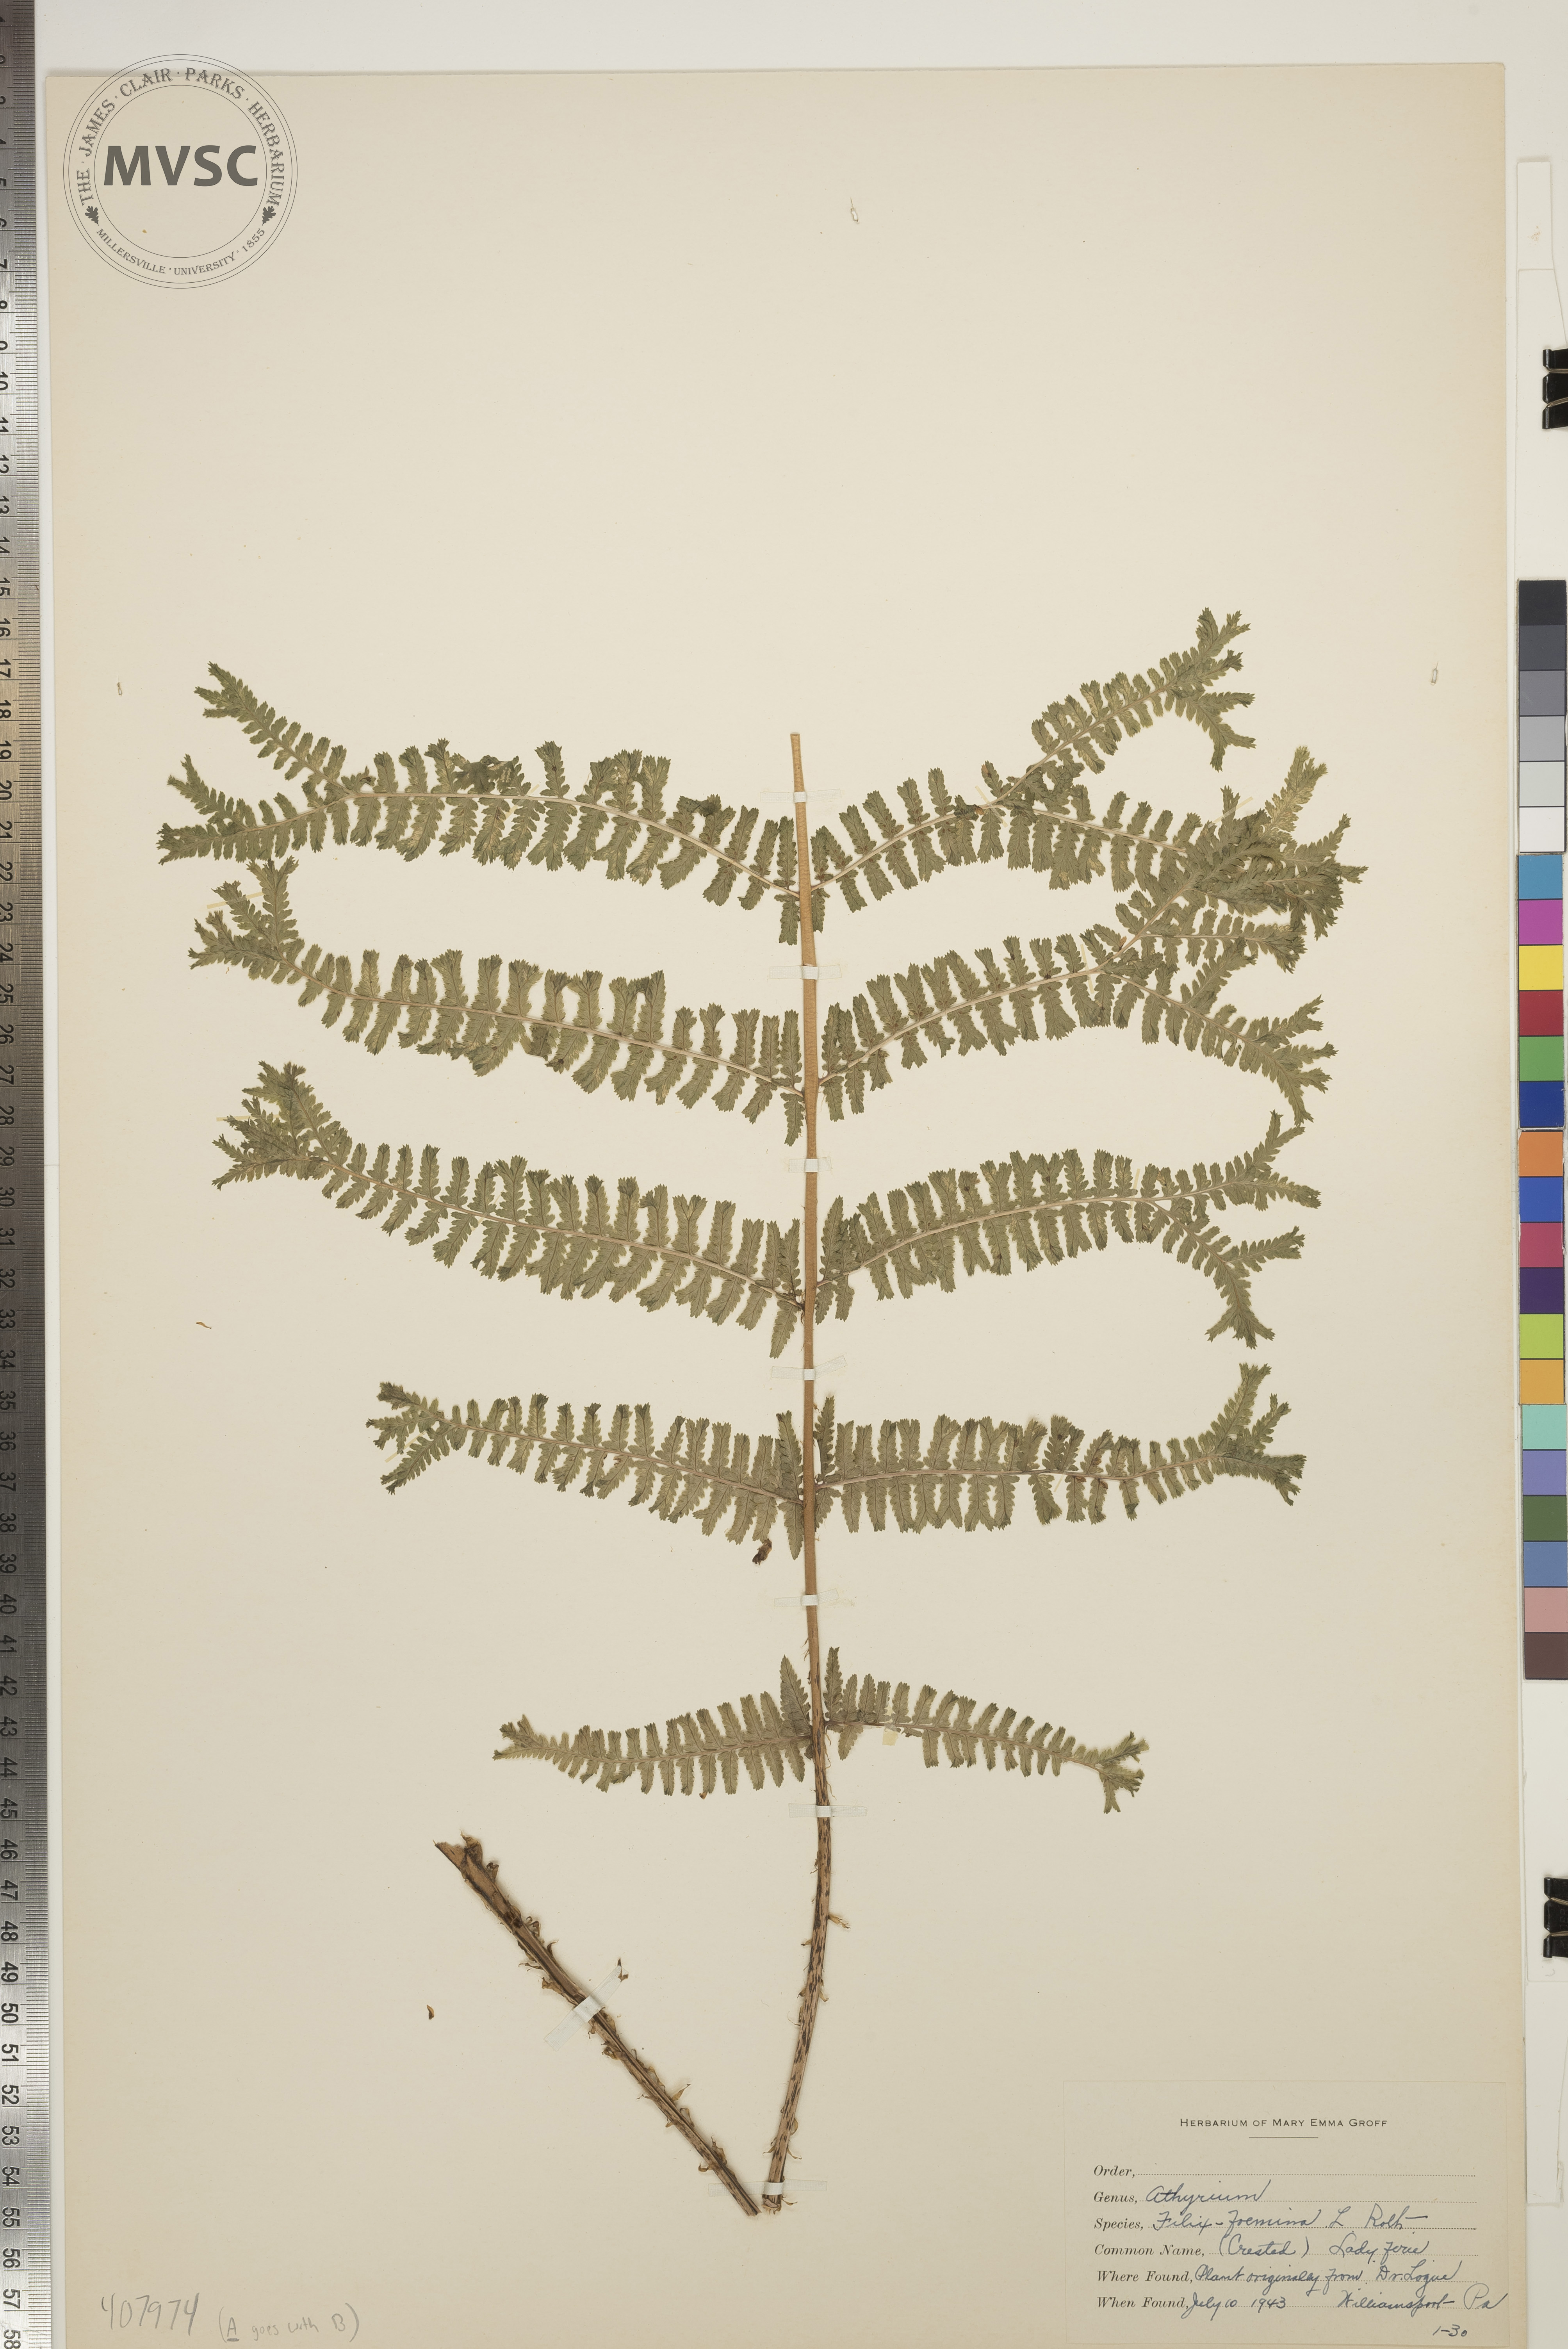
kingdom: Plantae
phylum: Tracheophyta
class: Polypodiopsida
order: Polypodiales
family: Athyriaceae
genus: Athyrium
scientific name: Athyrium filix-femina
